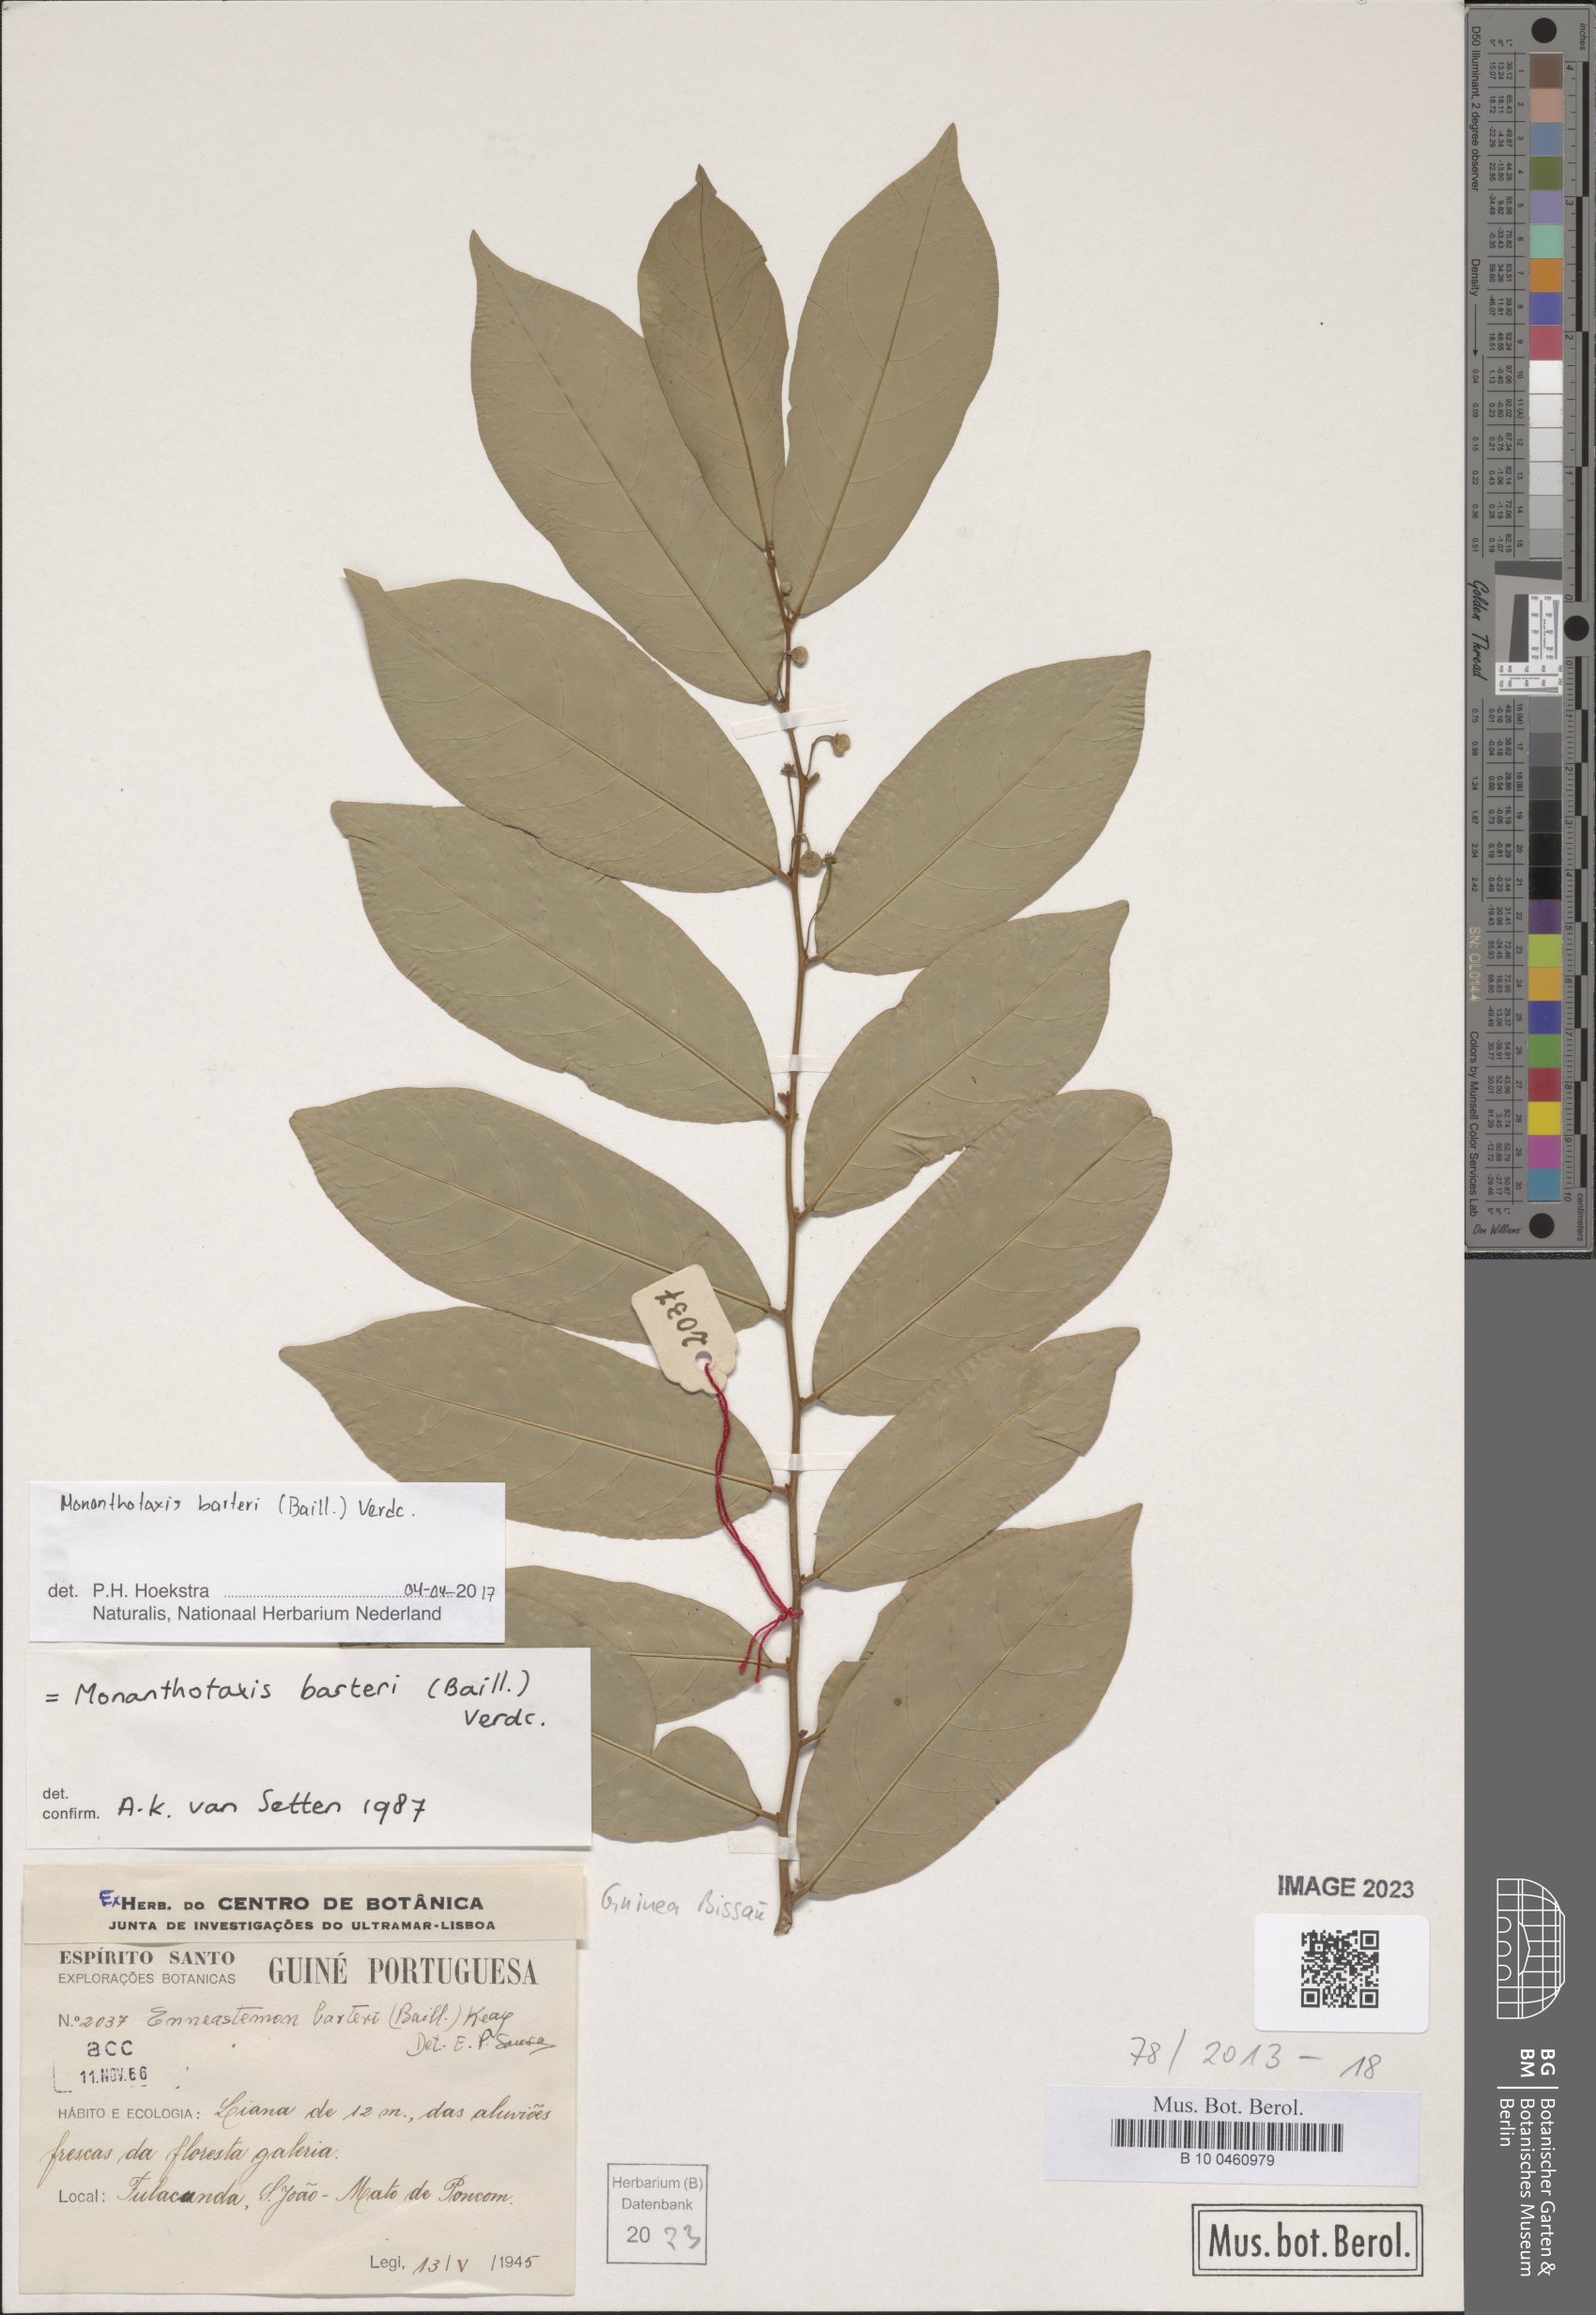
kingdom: Plantae
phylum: Tracheophyta
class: Magnoliopsida
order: Magnoliales
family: Annonaceae
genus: Monanthotaxis
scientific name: Monanthotaxis barteri
